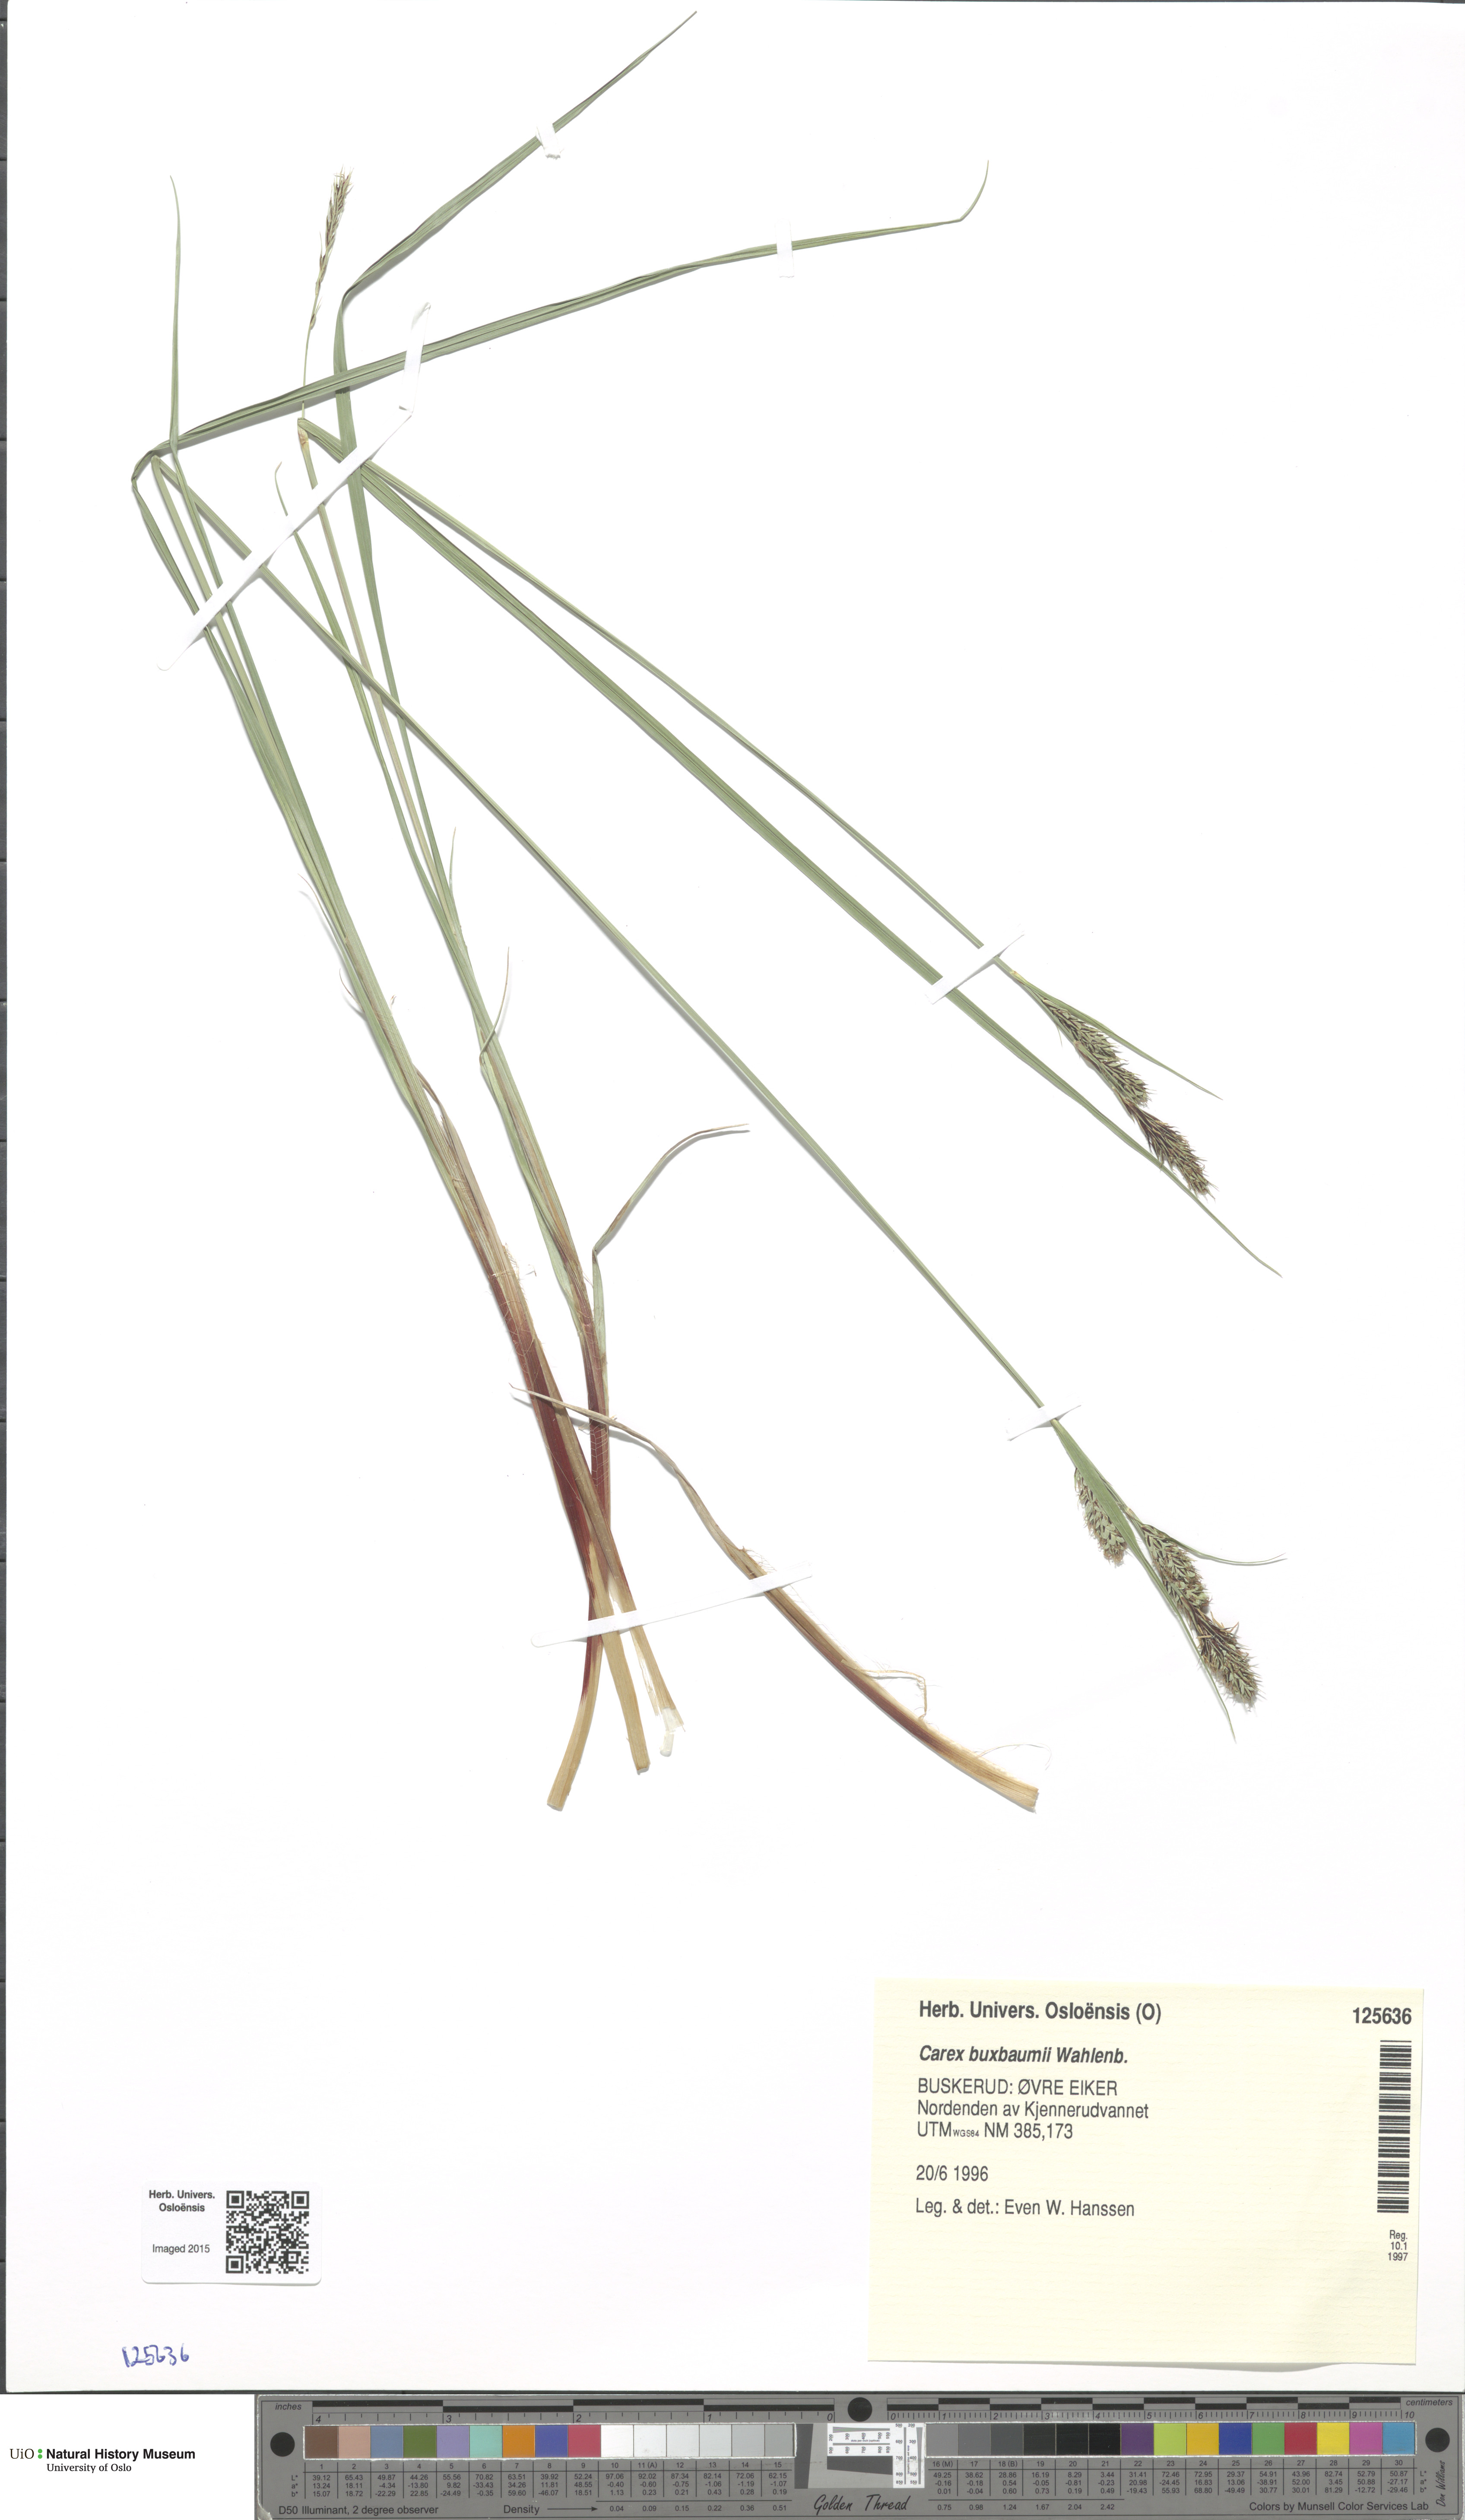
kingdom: Plantae
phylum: Tracheophyta
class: Liliopsida
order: Poales
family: Cyperaceae
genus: Carex
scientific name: Carex buxbaumii
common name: Club sedge
